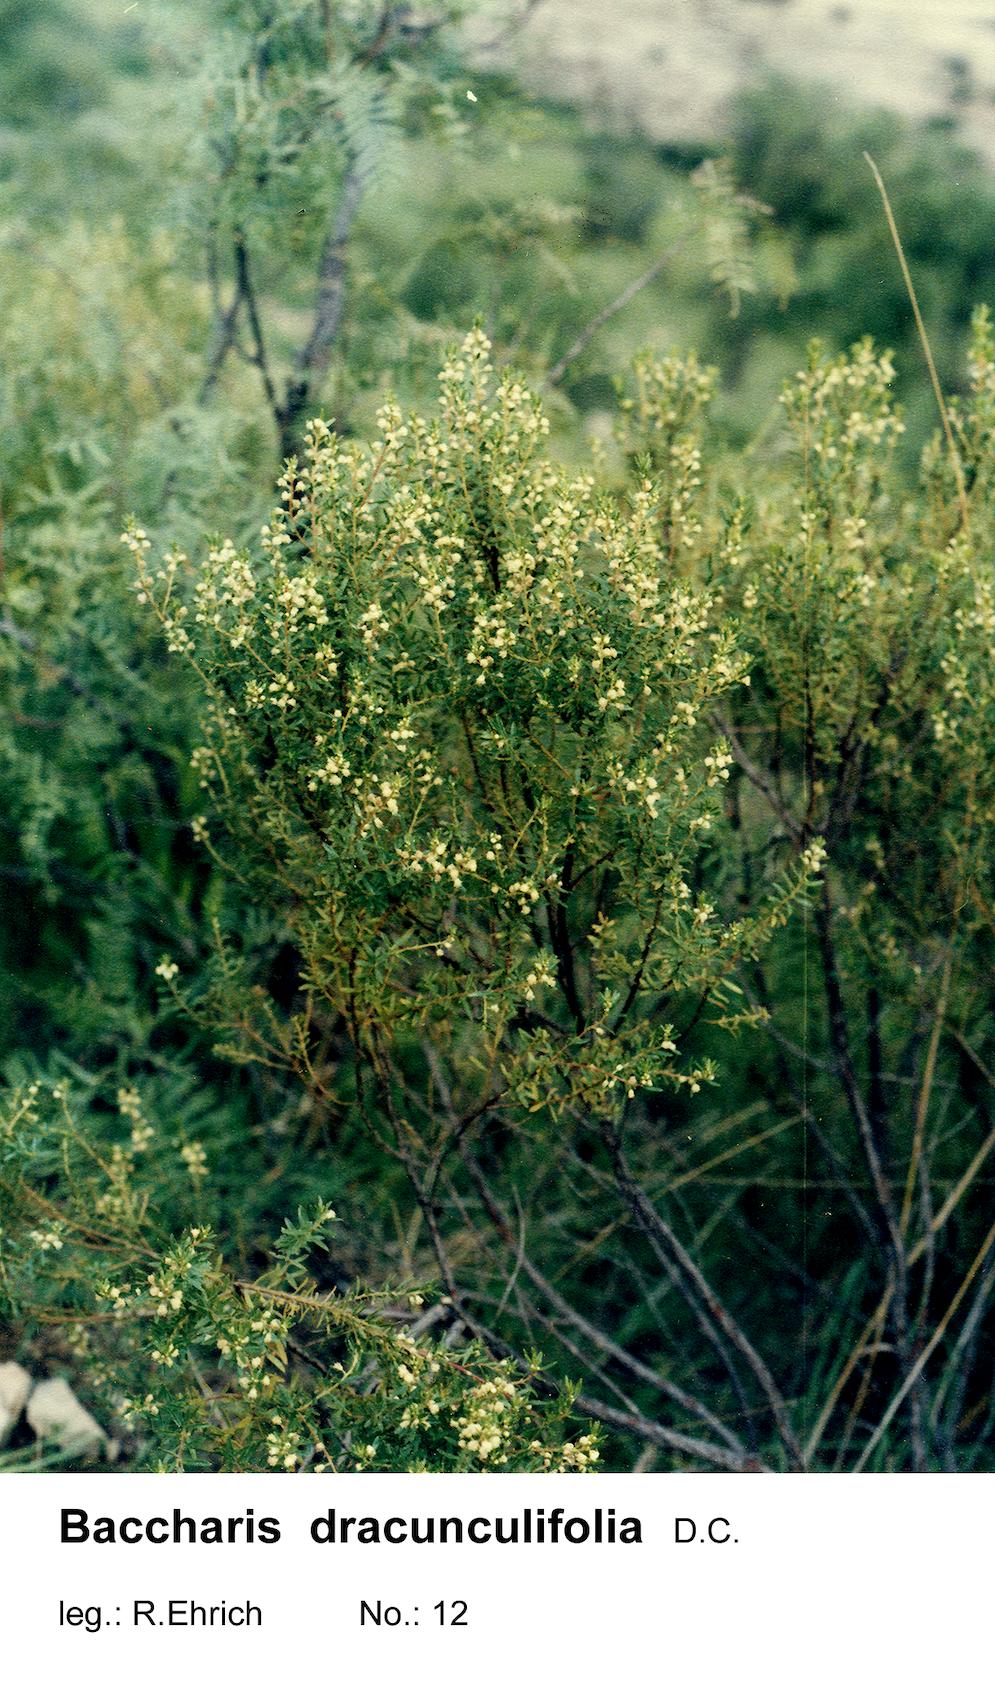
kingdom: Plantae
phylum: Tracheophyta
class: Magnoliopsida
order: Asterales
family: Asteraceae
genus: Baccharis
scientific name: Baccharis dracunculifolia
